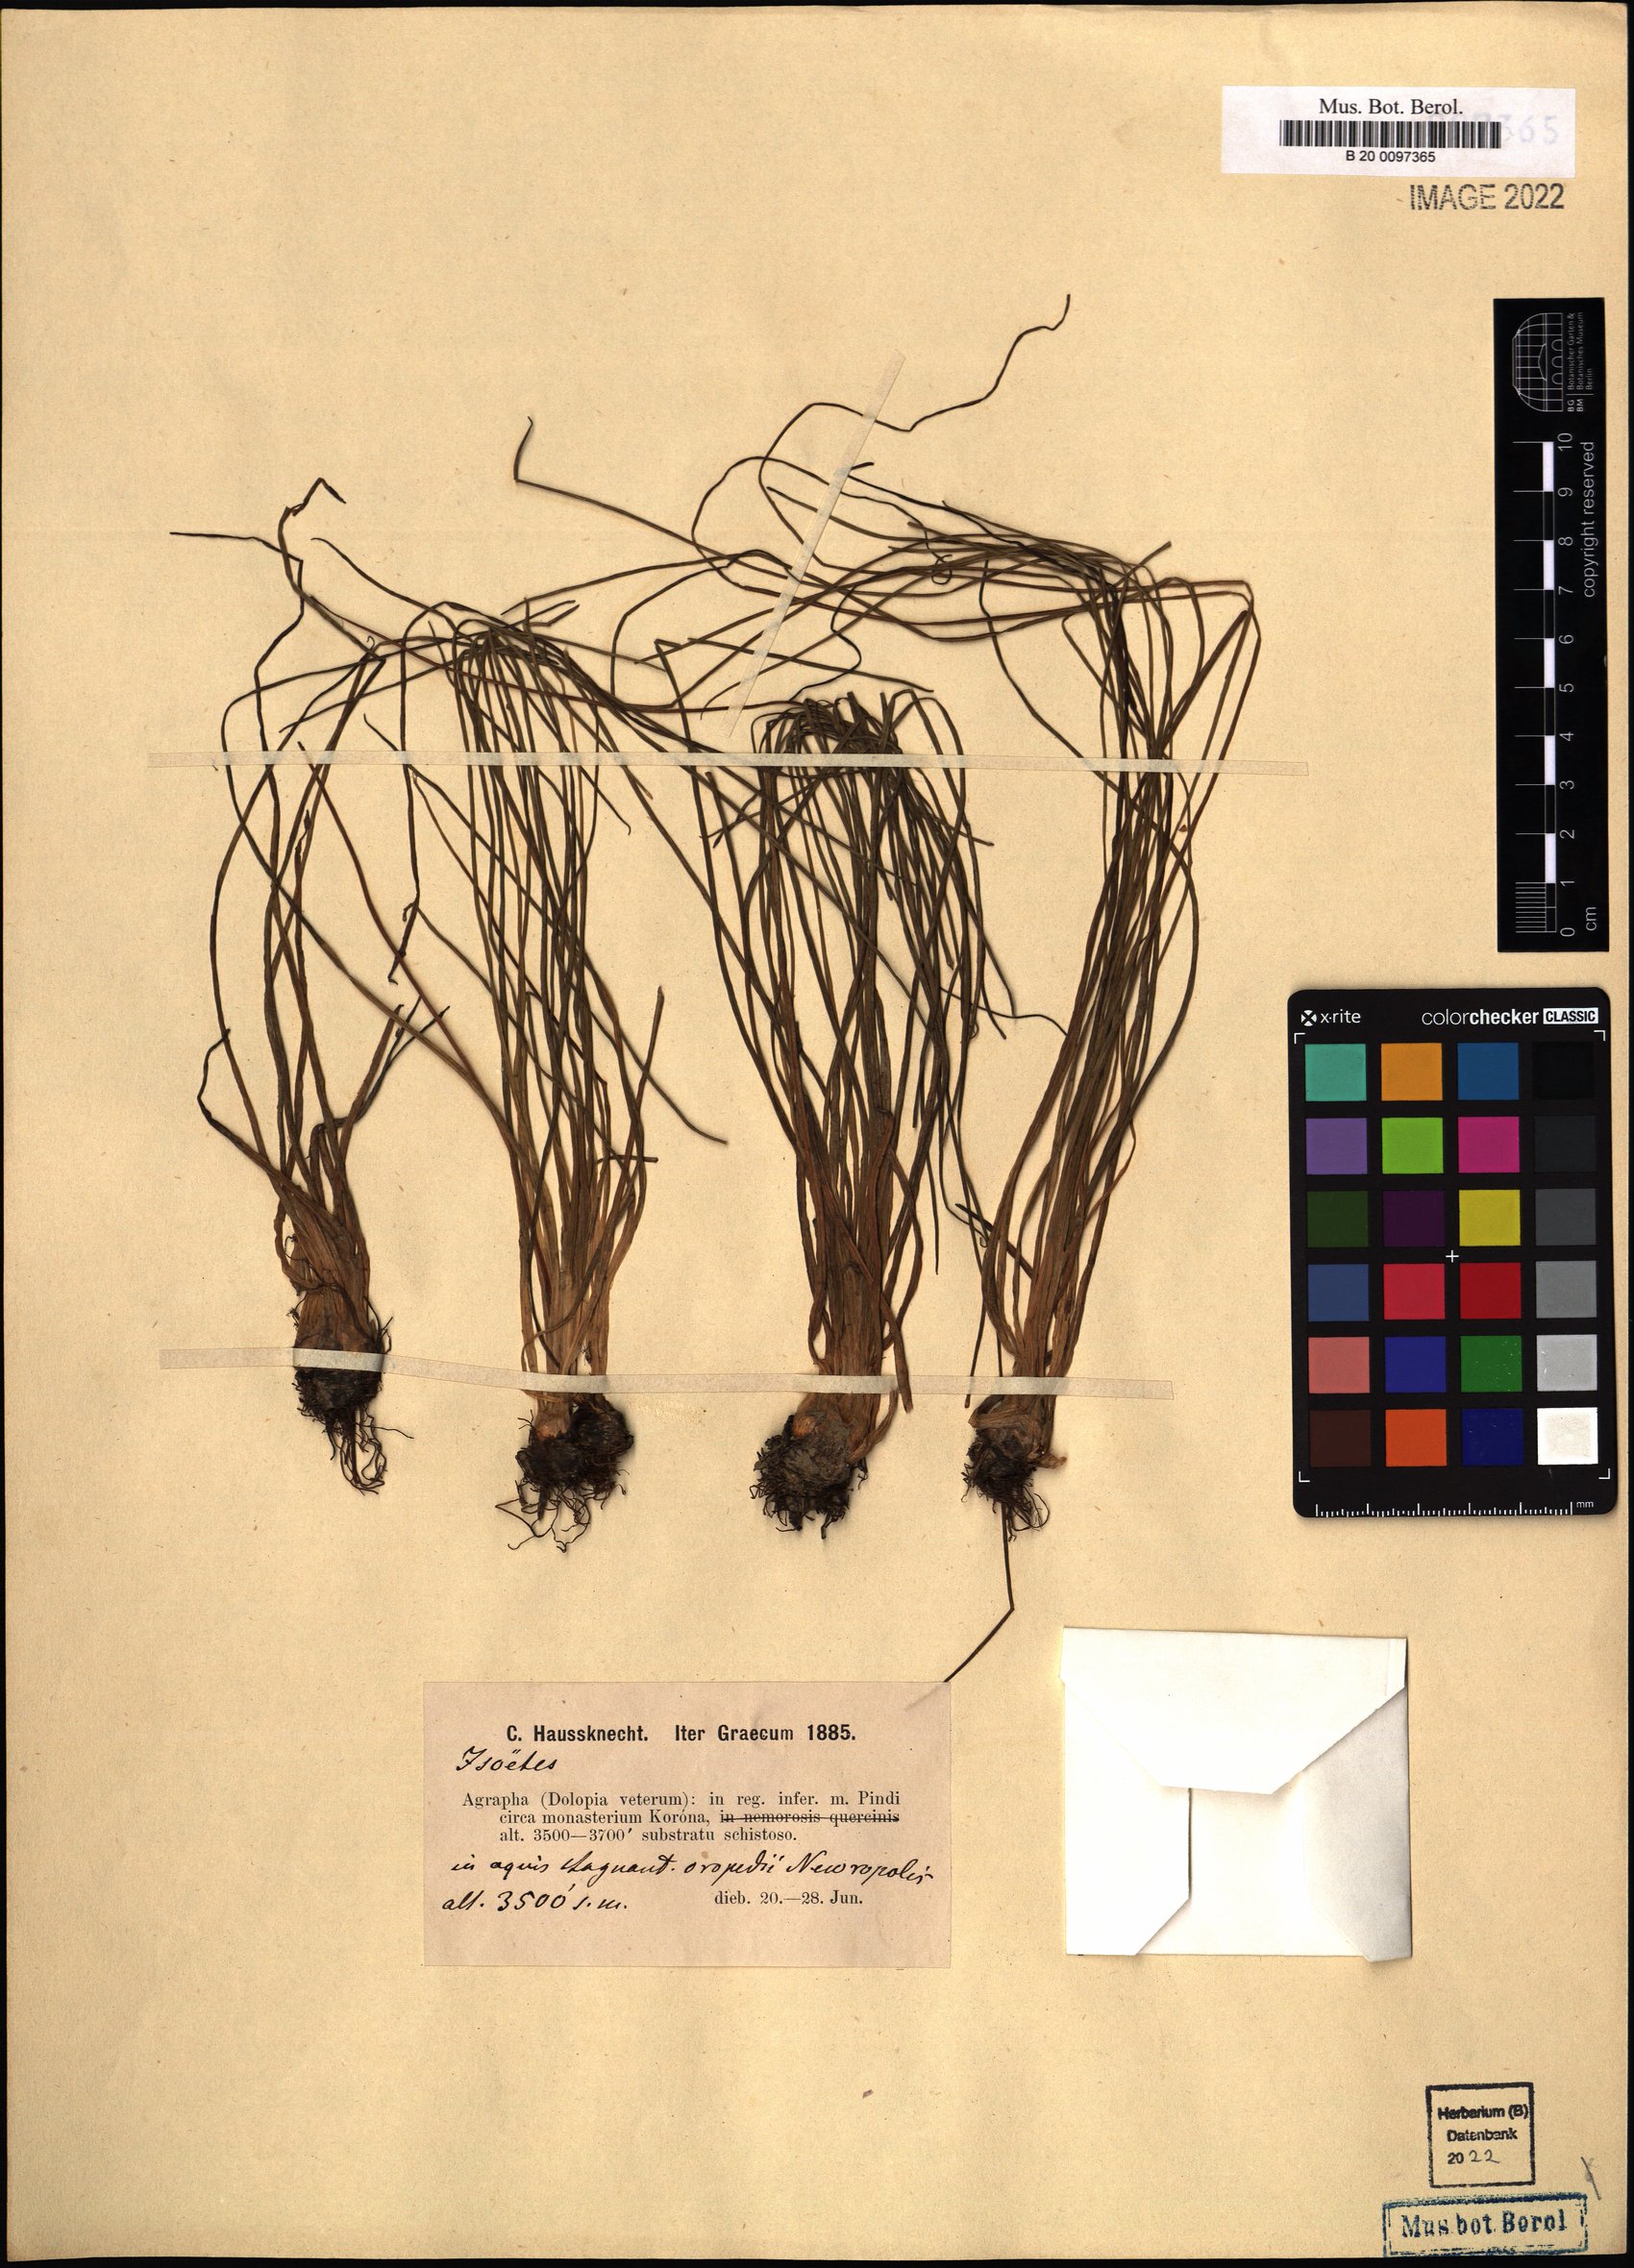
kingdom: Plantae
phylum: Tracheophyta
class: Lycopodiopsida
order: Isoetales
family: Isoetaceae
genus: Isoetes
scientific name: Isoetes
